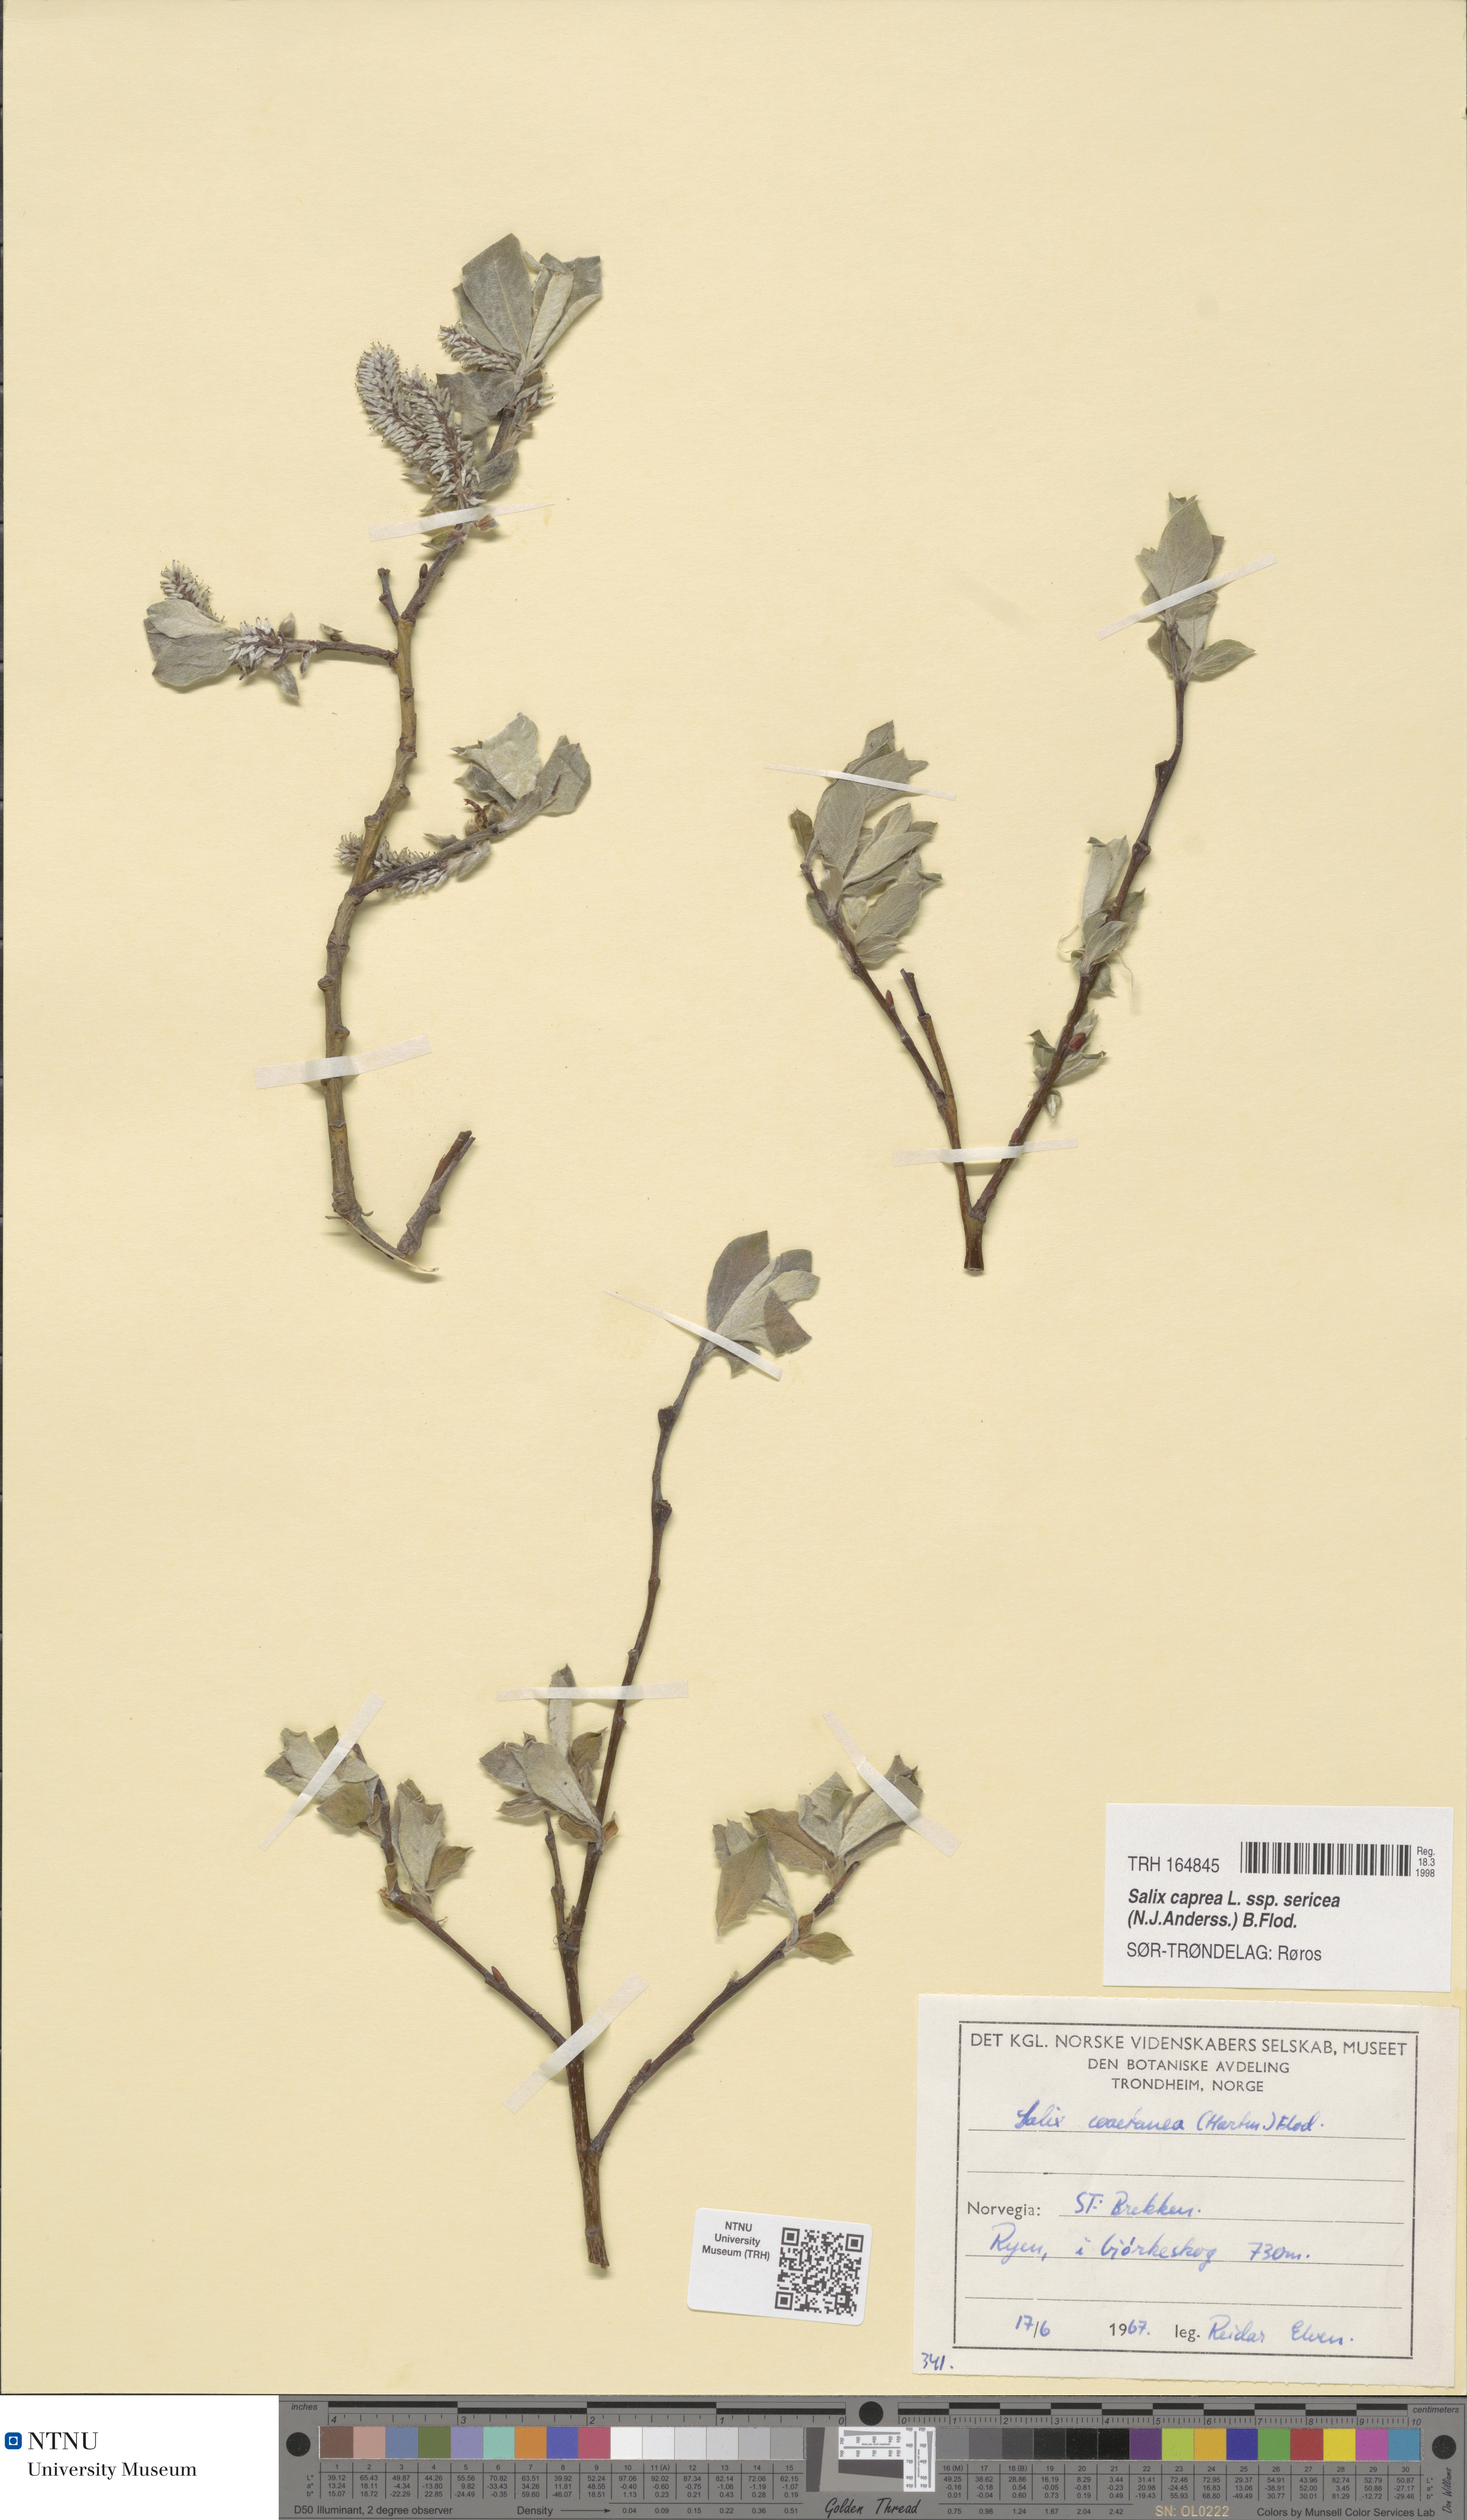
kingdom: Plantae
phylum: Tracheophyta
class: Magnoliopsida
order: Malpighiales
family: Salicaceae
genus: Salix
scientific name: Salix caprea
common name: Goat willow
